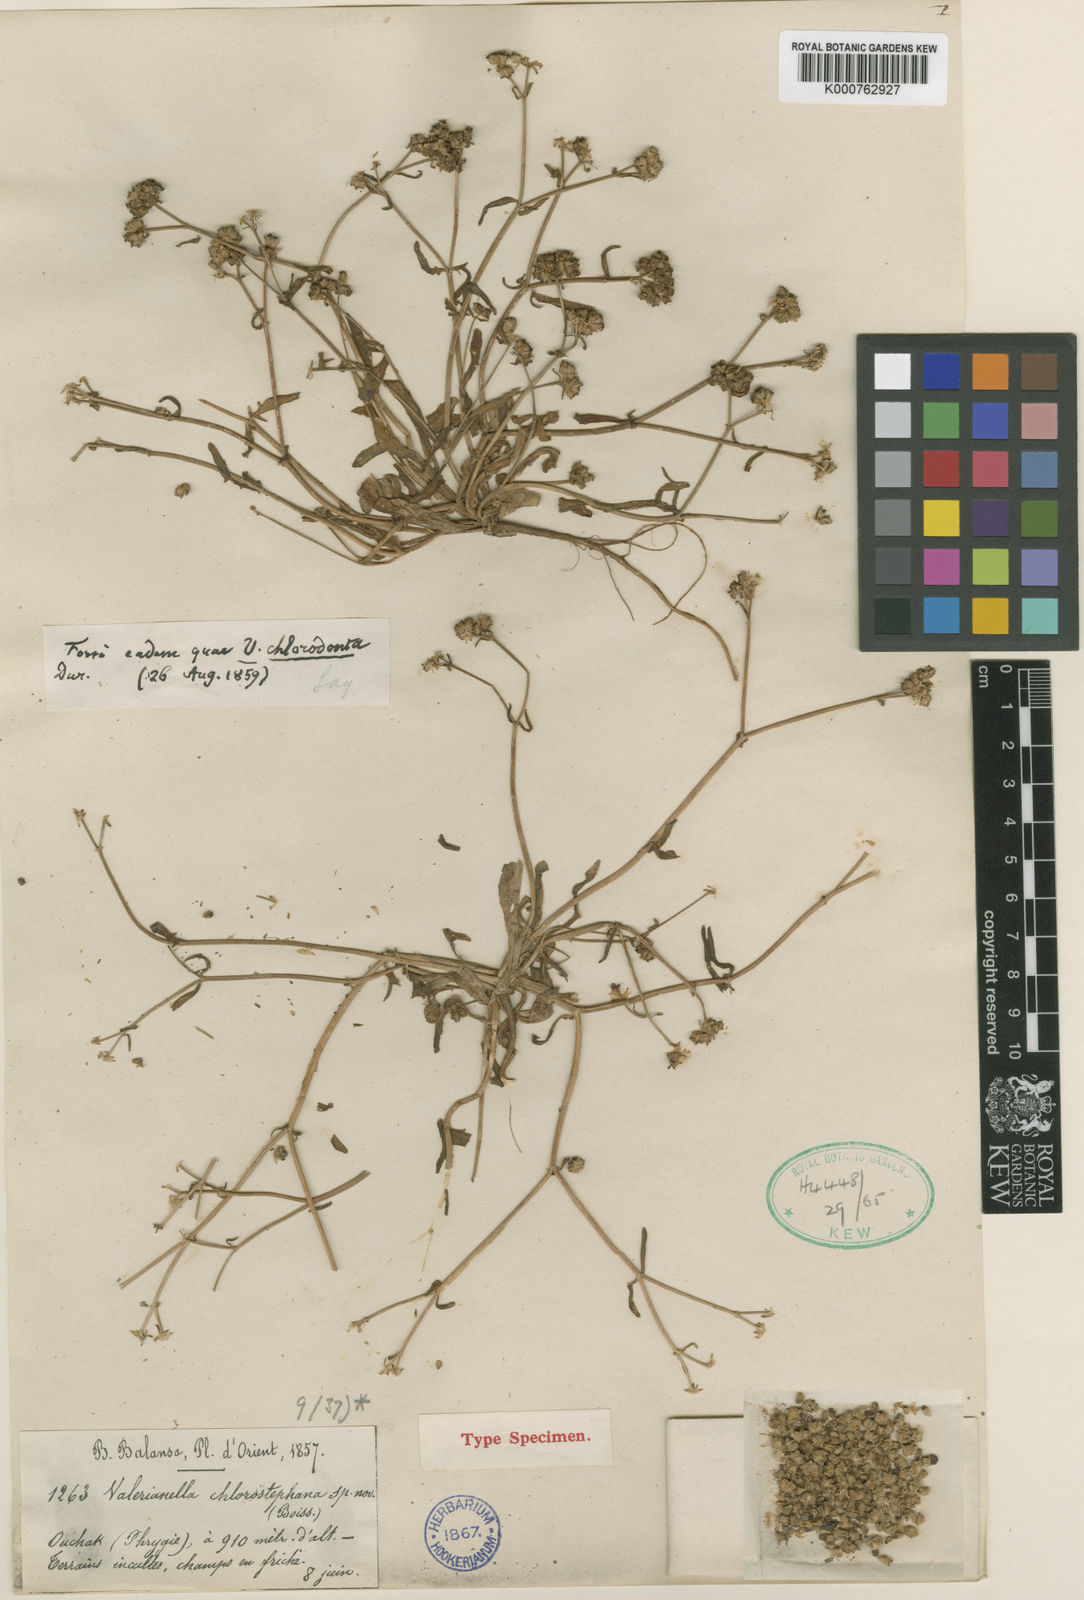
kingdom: Plantae
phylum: Tracheophyta
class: Magnoliopsida
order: Dipsacales
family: Caprifoliaceae
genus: Valerianella
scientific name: Valerianella pomelii
